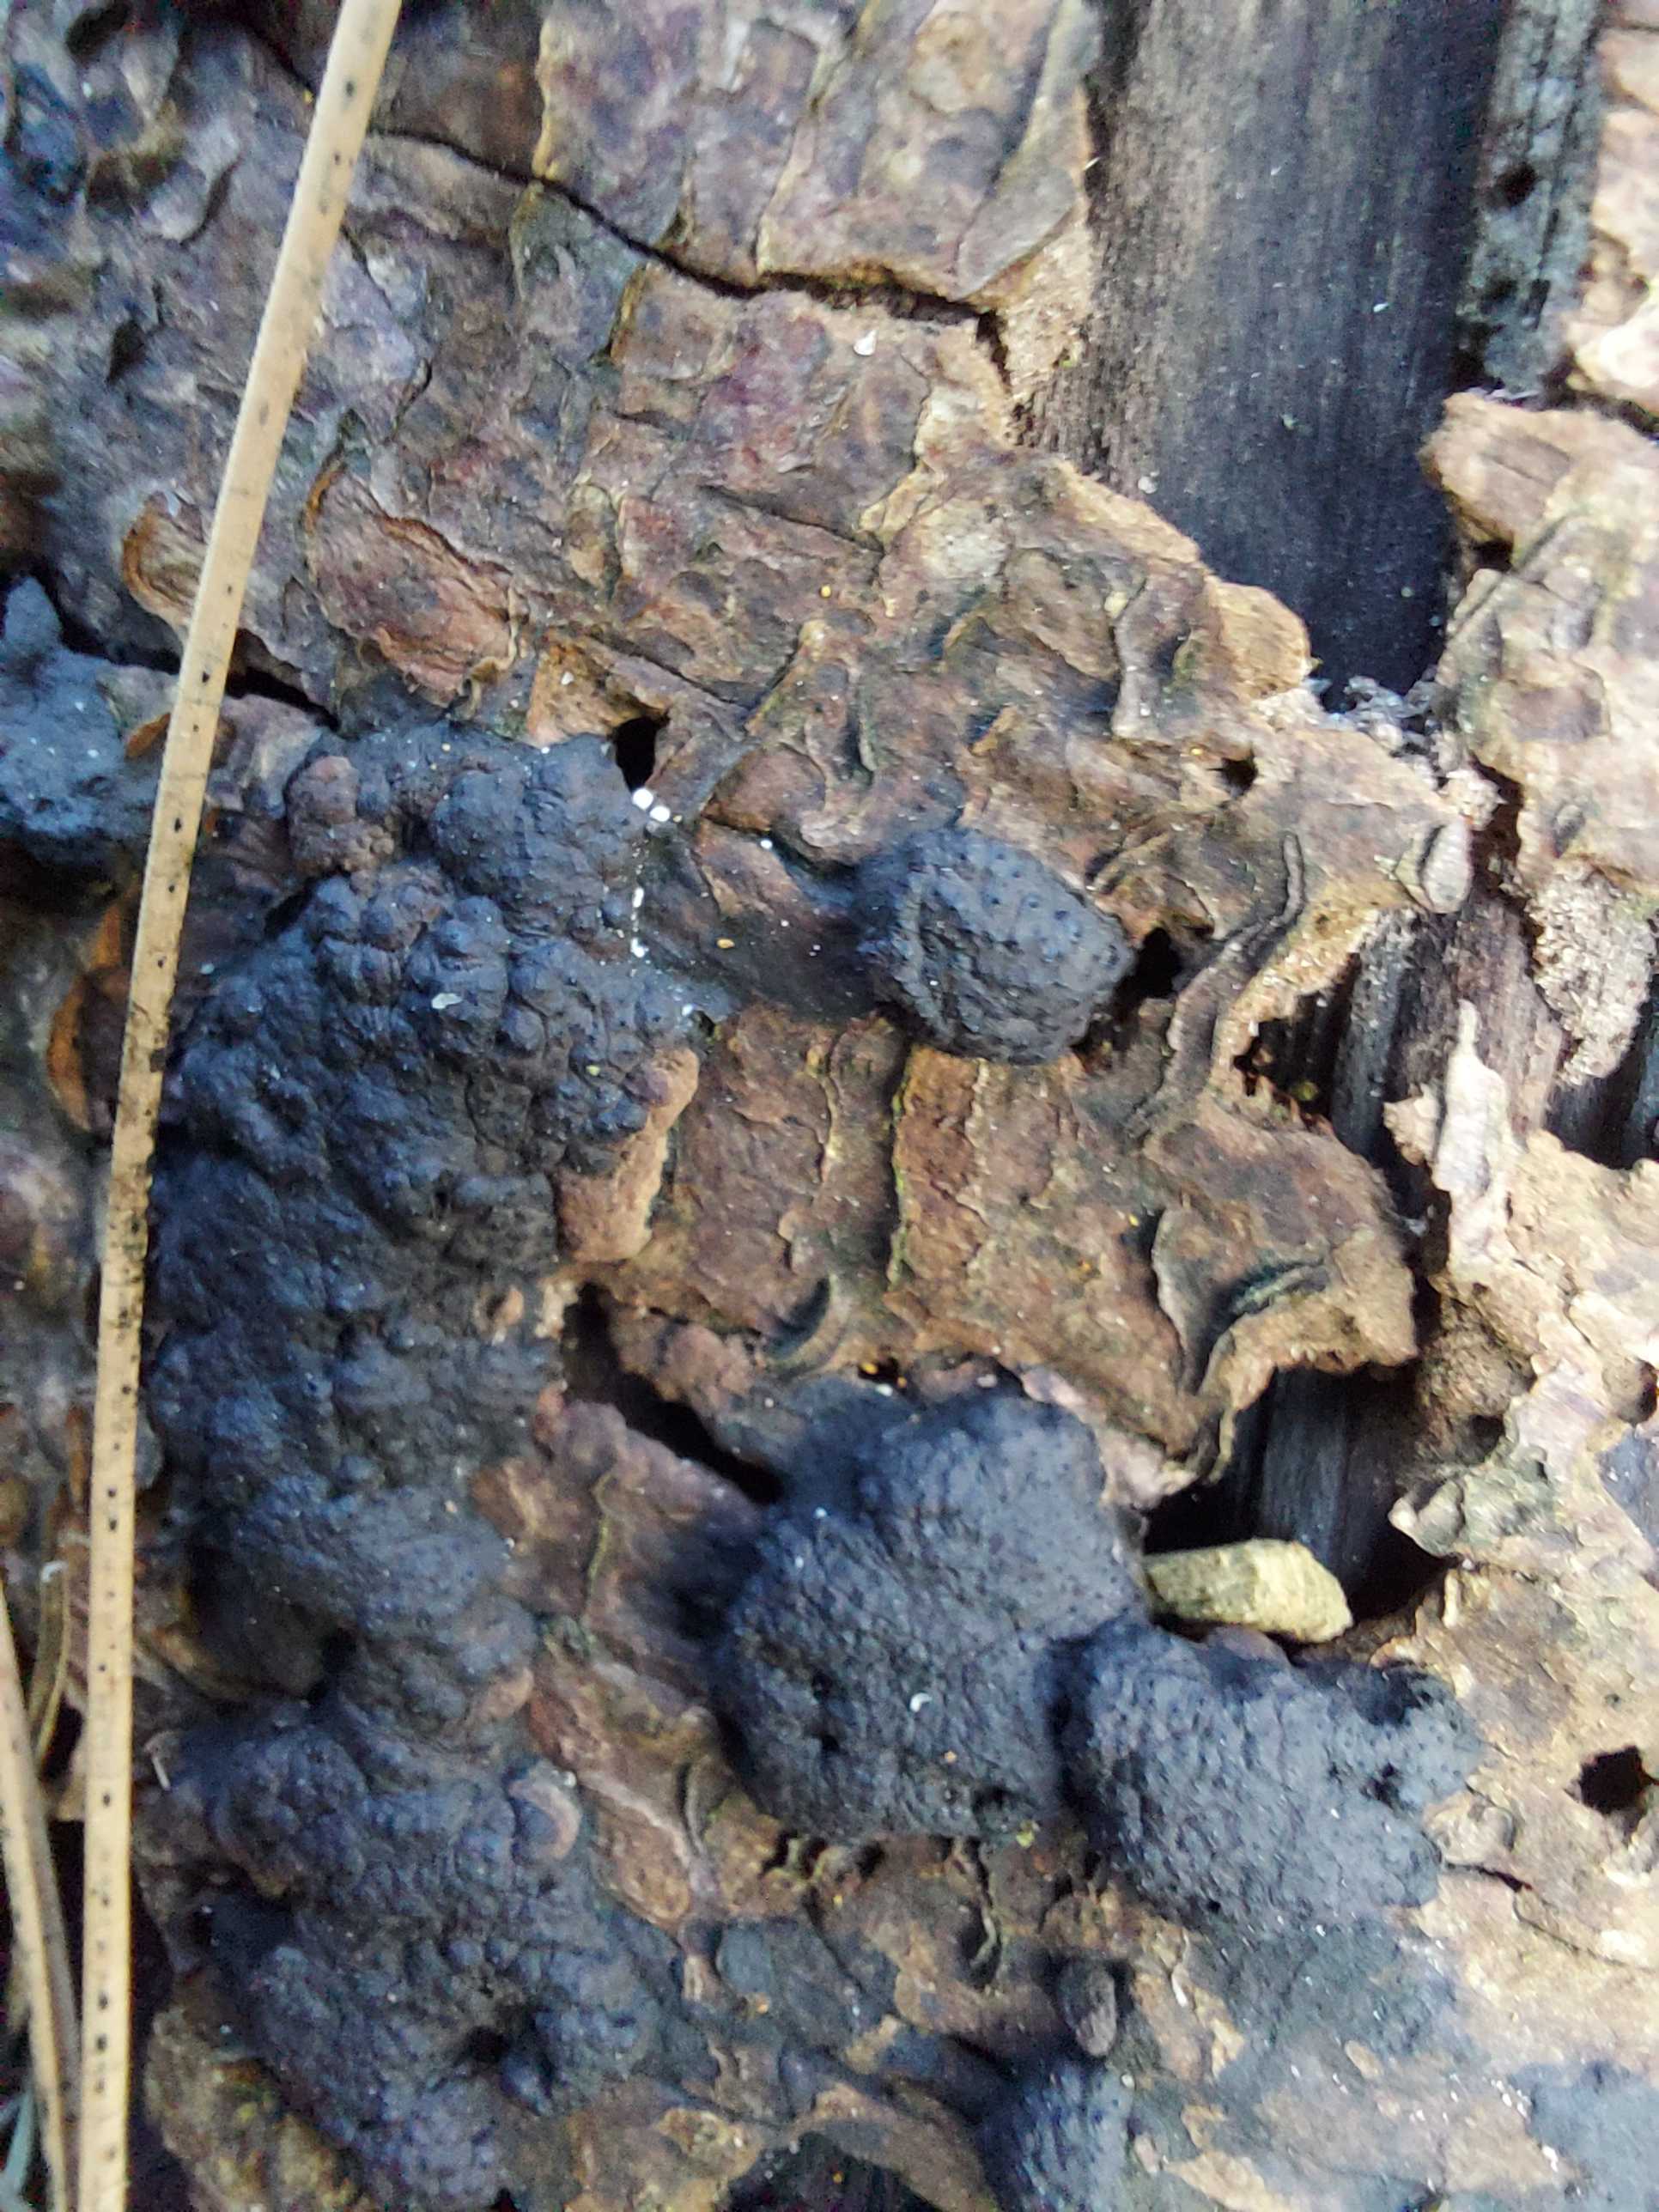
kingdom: Fungi
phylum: Ascomycota
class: Sordariomycetes
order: Xylariales
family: Hypoxylaceae
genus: Jackrogersella
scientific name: Jackrogersella
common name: kulbær
